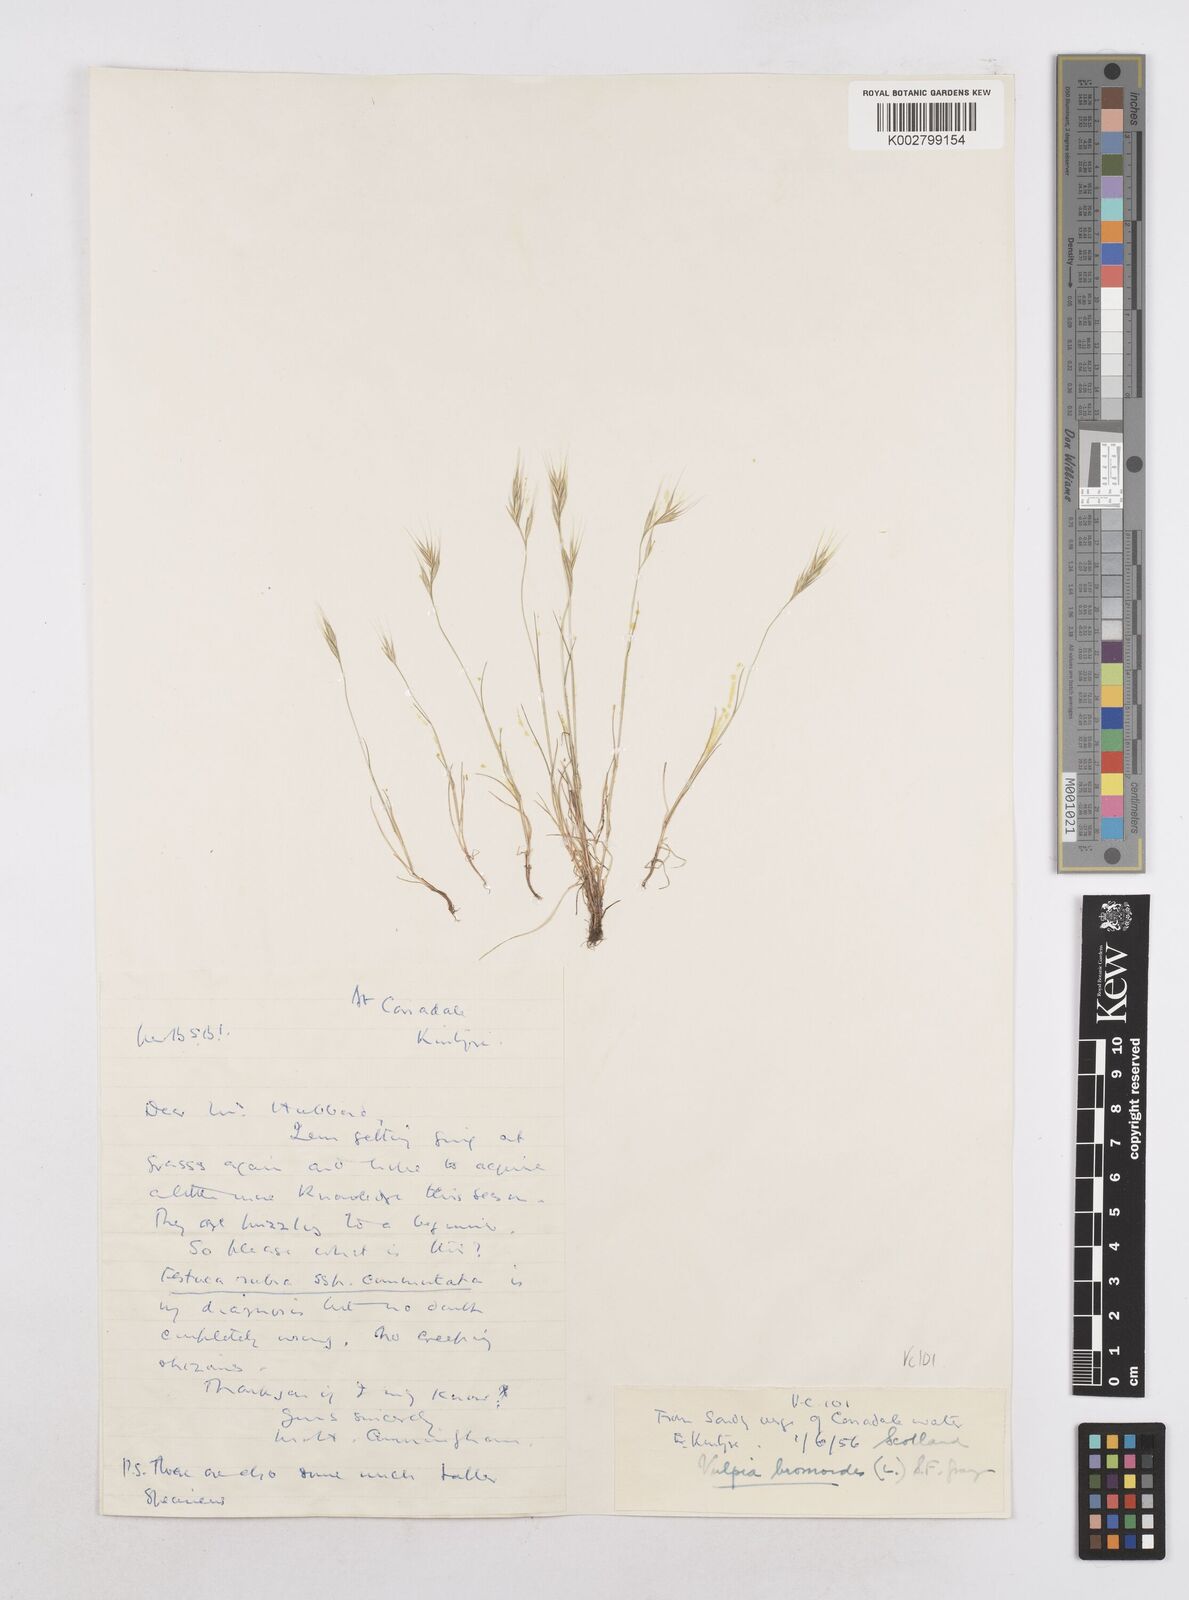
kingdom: Plantae
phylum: Tracheophyta
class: Liliopsida
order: Poales
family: Poaceae
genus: Festuca
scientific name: Festuca bromoides
